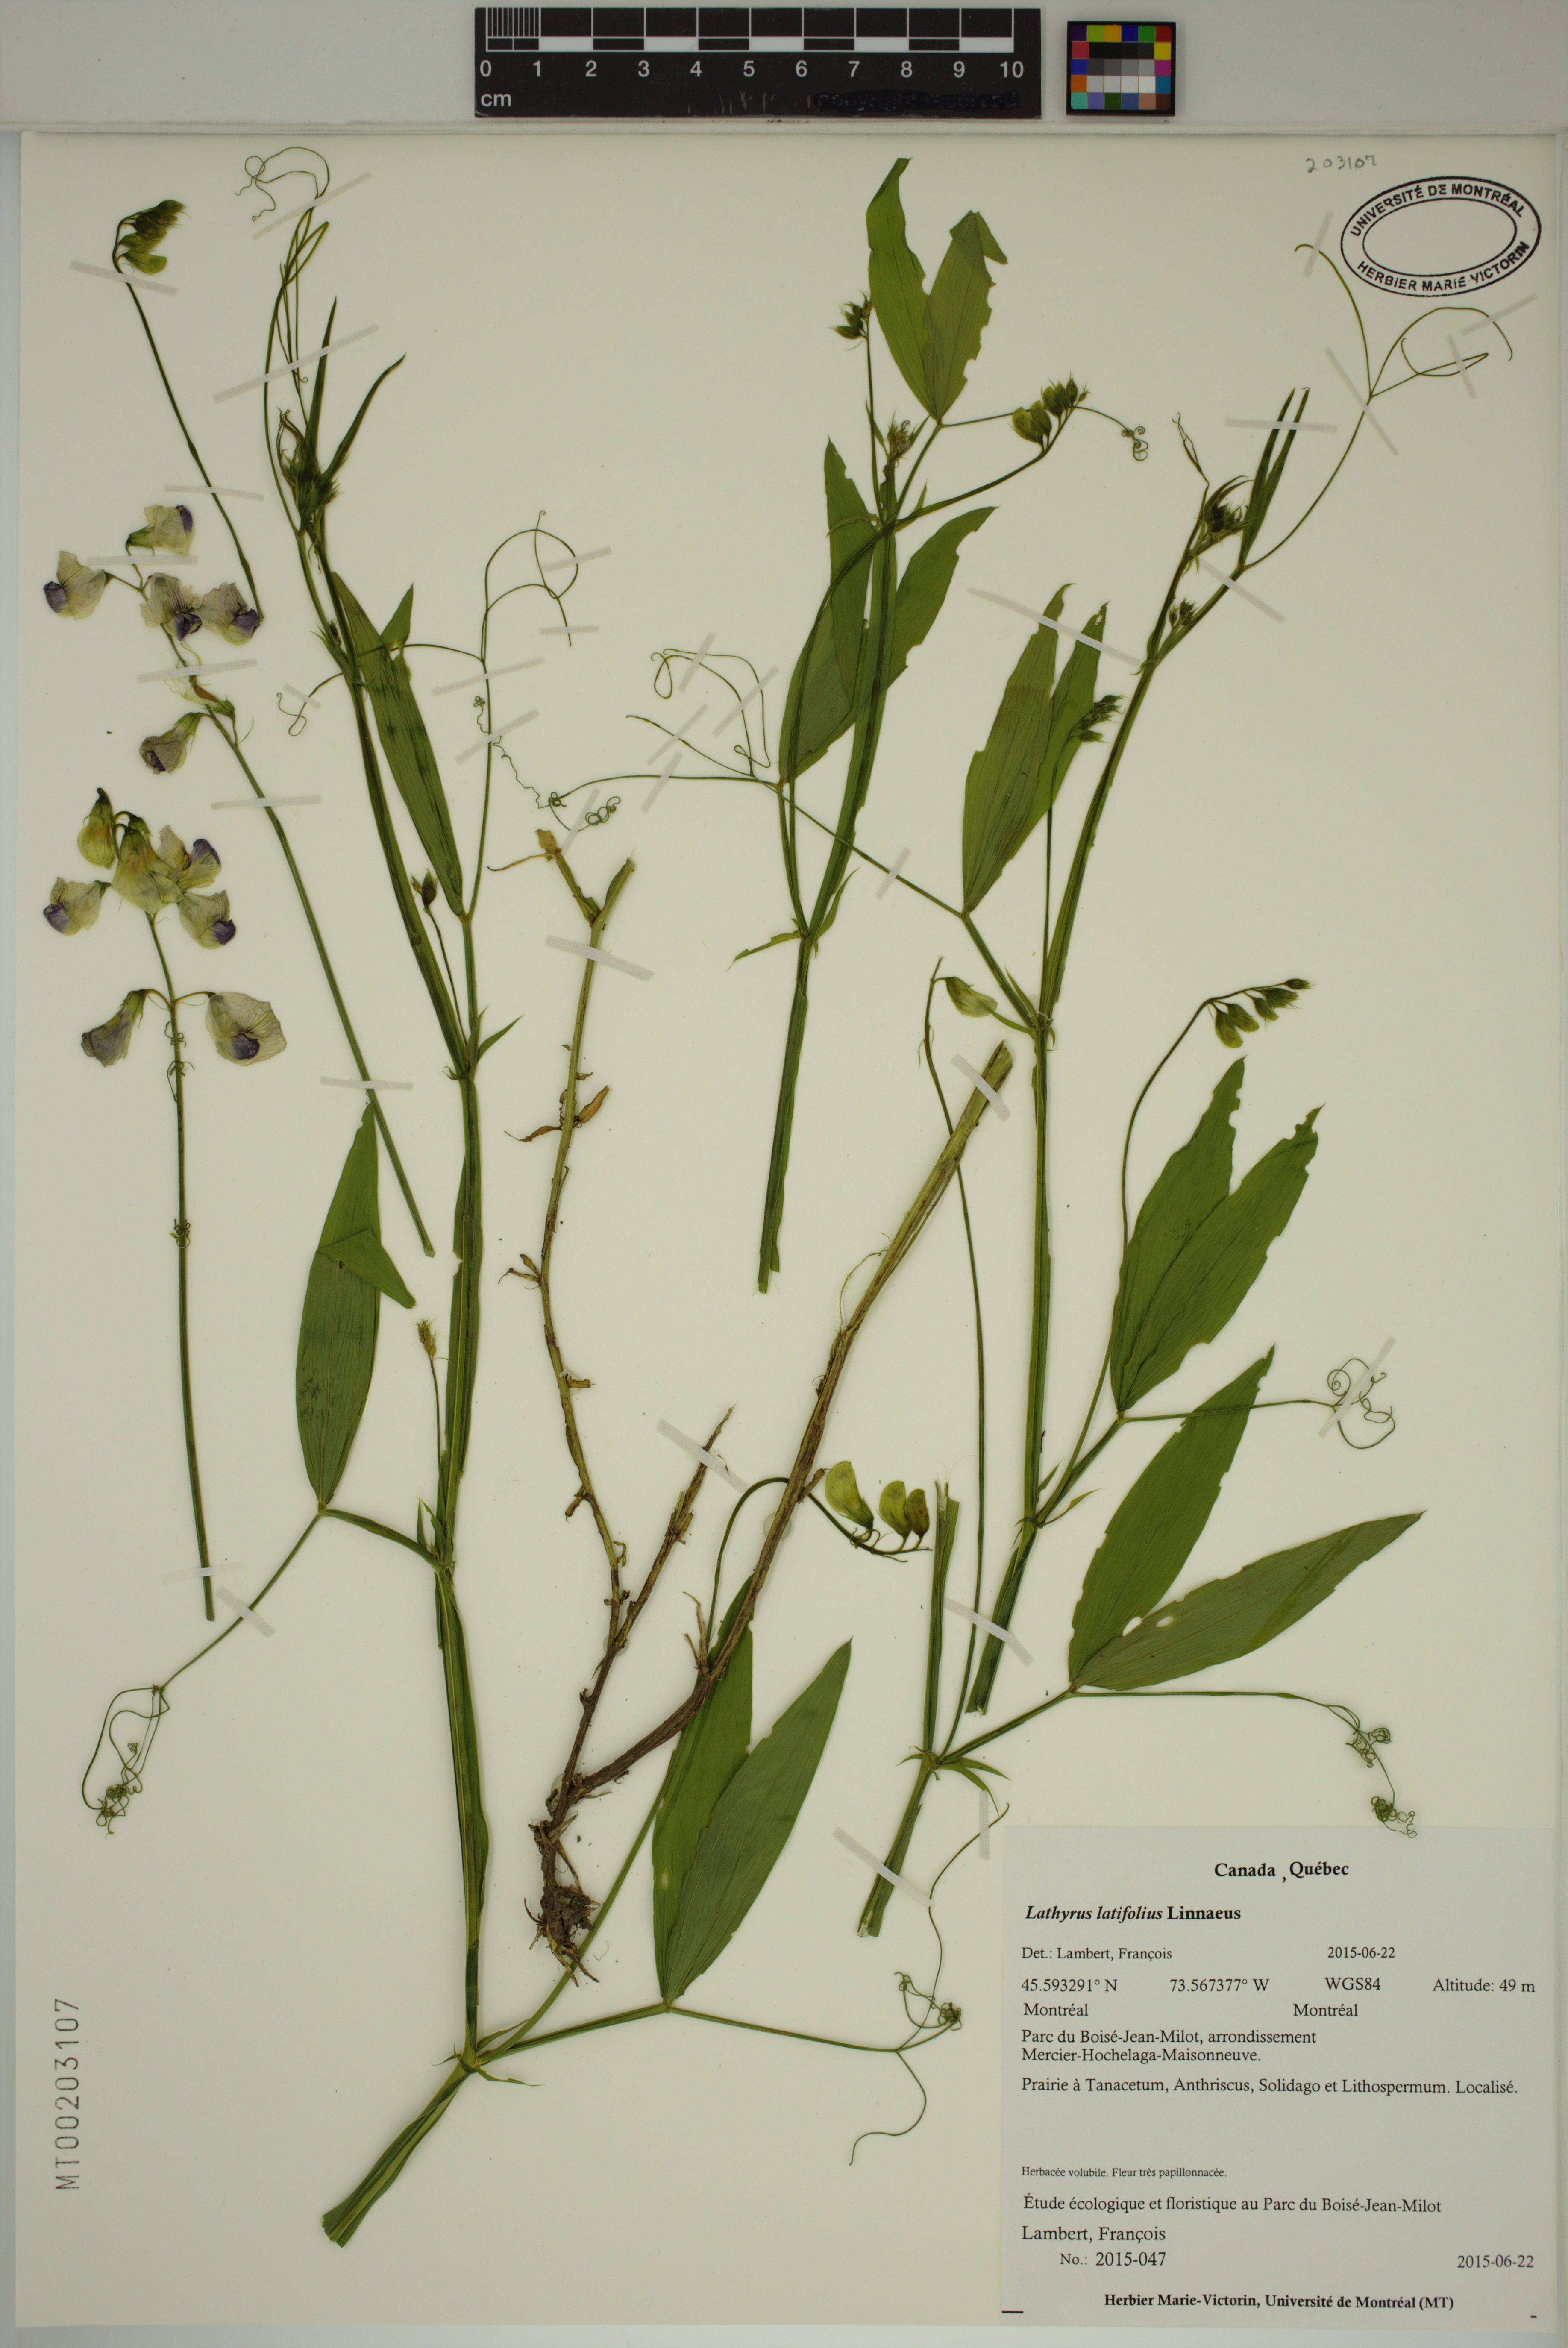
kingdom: Plantae
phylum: Tracheophyta
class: Magnoliopsida
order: Fabales
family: Fabaceae
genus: Lathyrus
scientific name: Lathyrus latifolius
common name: Perennial pea
